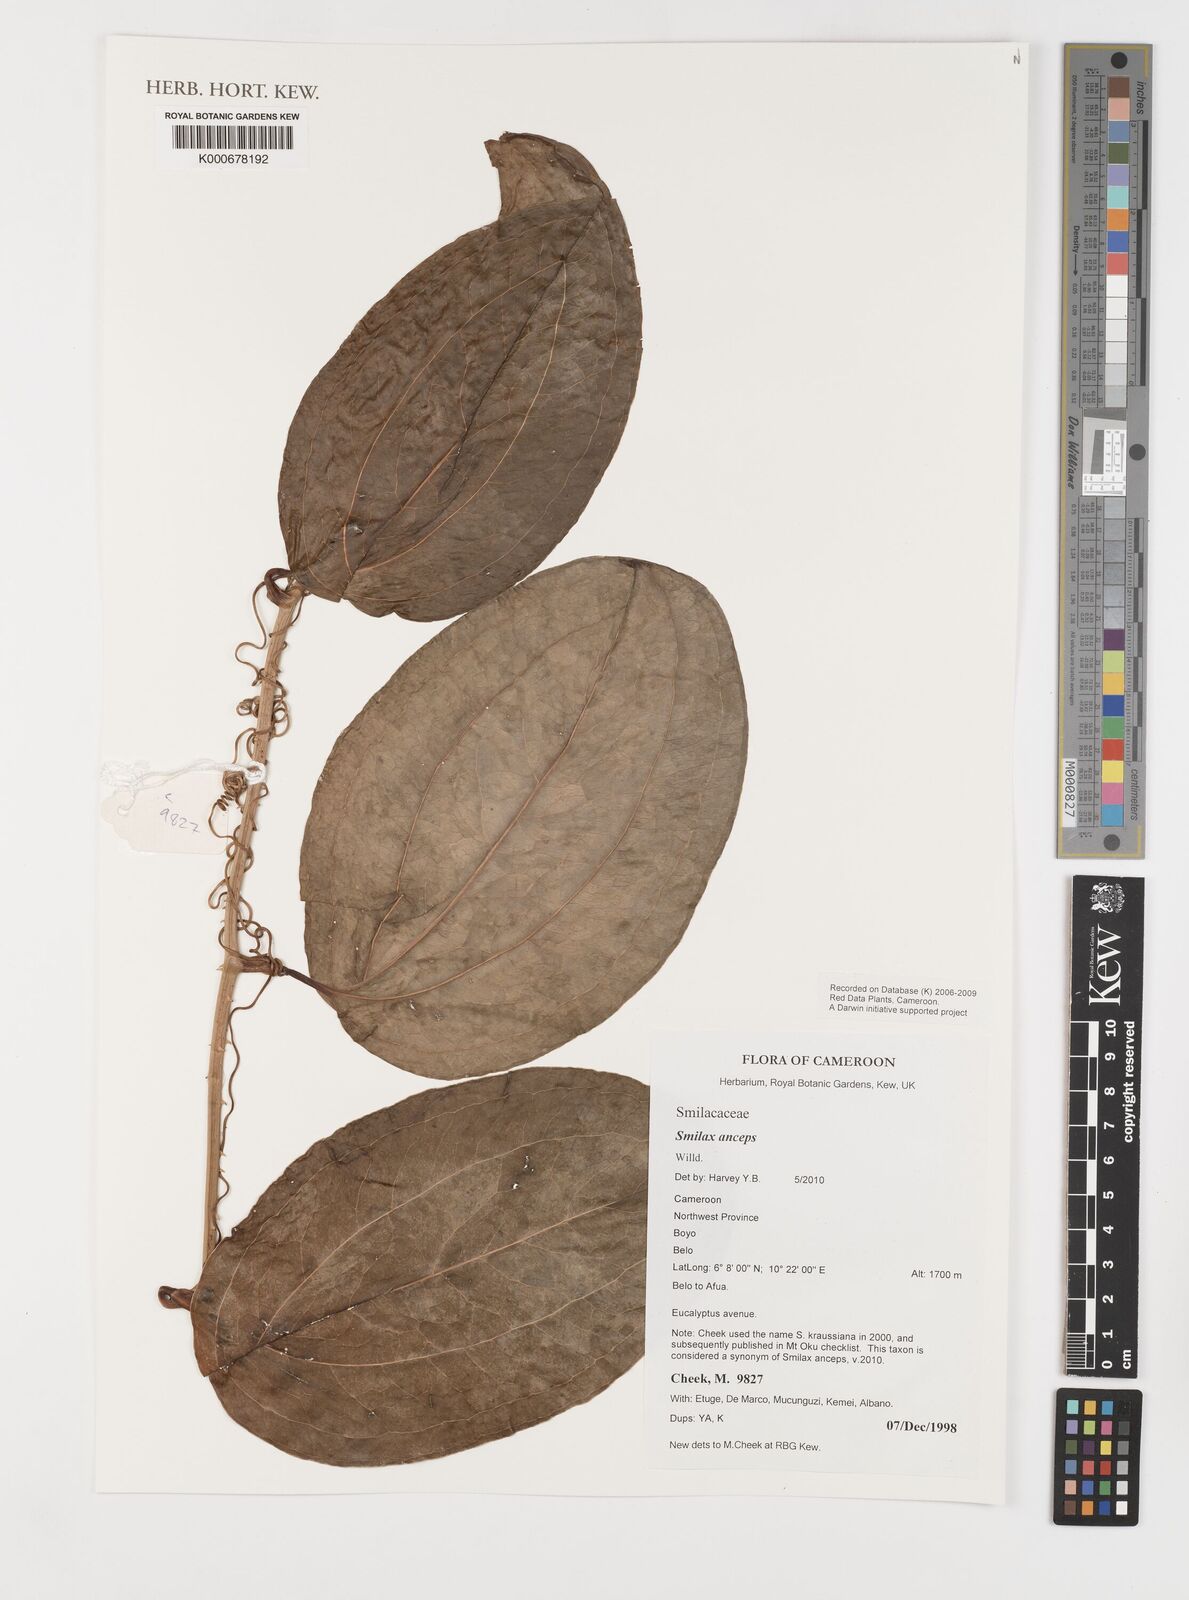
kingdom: Plantae
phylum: Tracheophyta
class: Liliopsida
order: Liliales
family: Smilacaceae
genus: Smilax
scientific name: Smilax anceps
